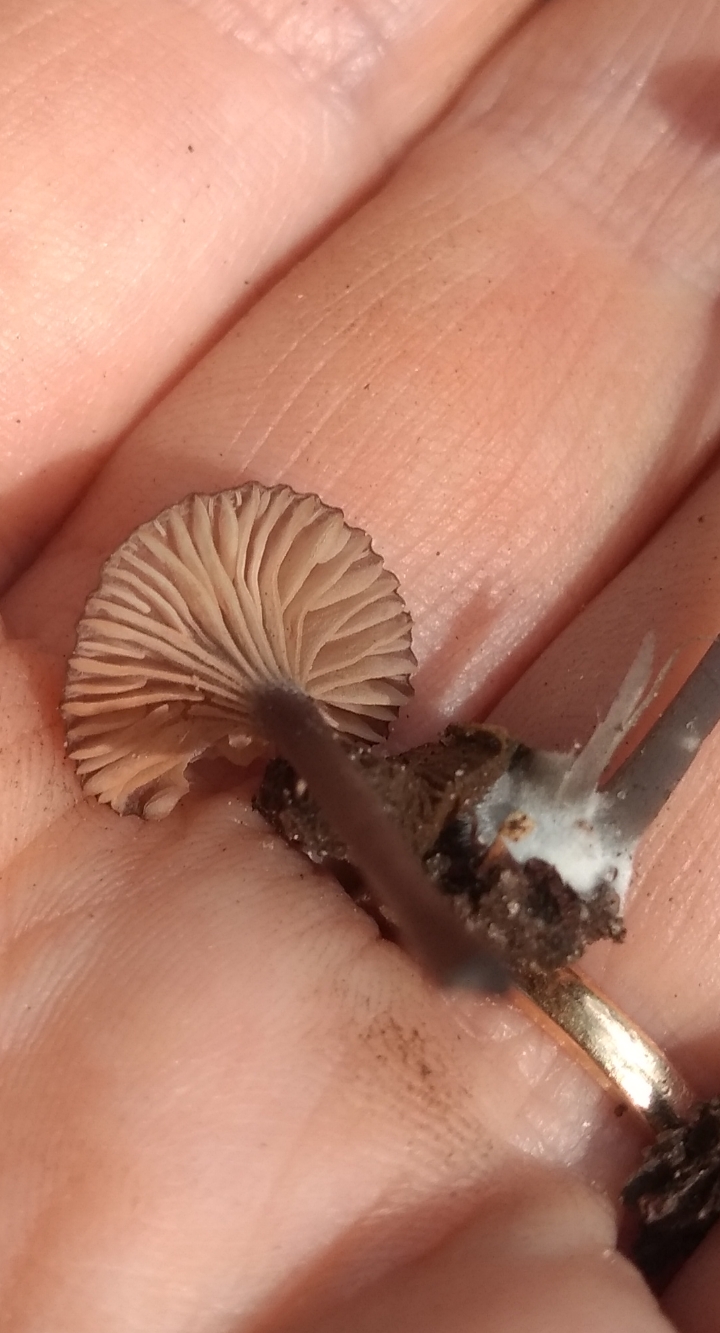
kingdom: Fungi
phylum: Basidiomycota
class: Agaricomycetes
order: Agaricales
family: Entolomataceae
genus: Entoloma
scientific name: Entoloma incarnatofuscescens
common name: tragt-rødblad
